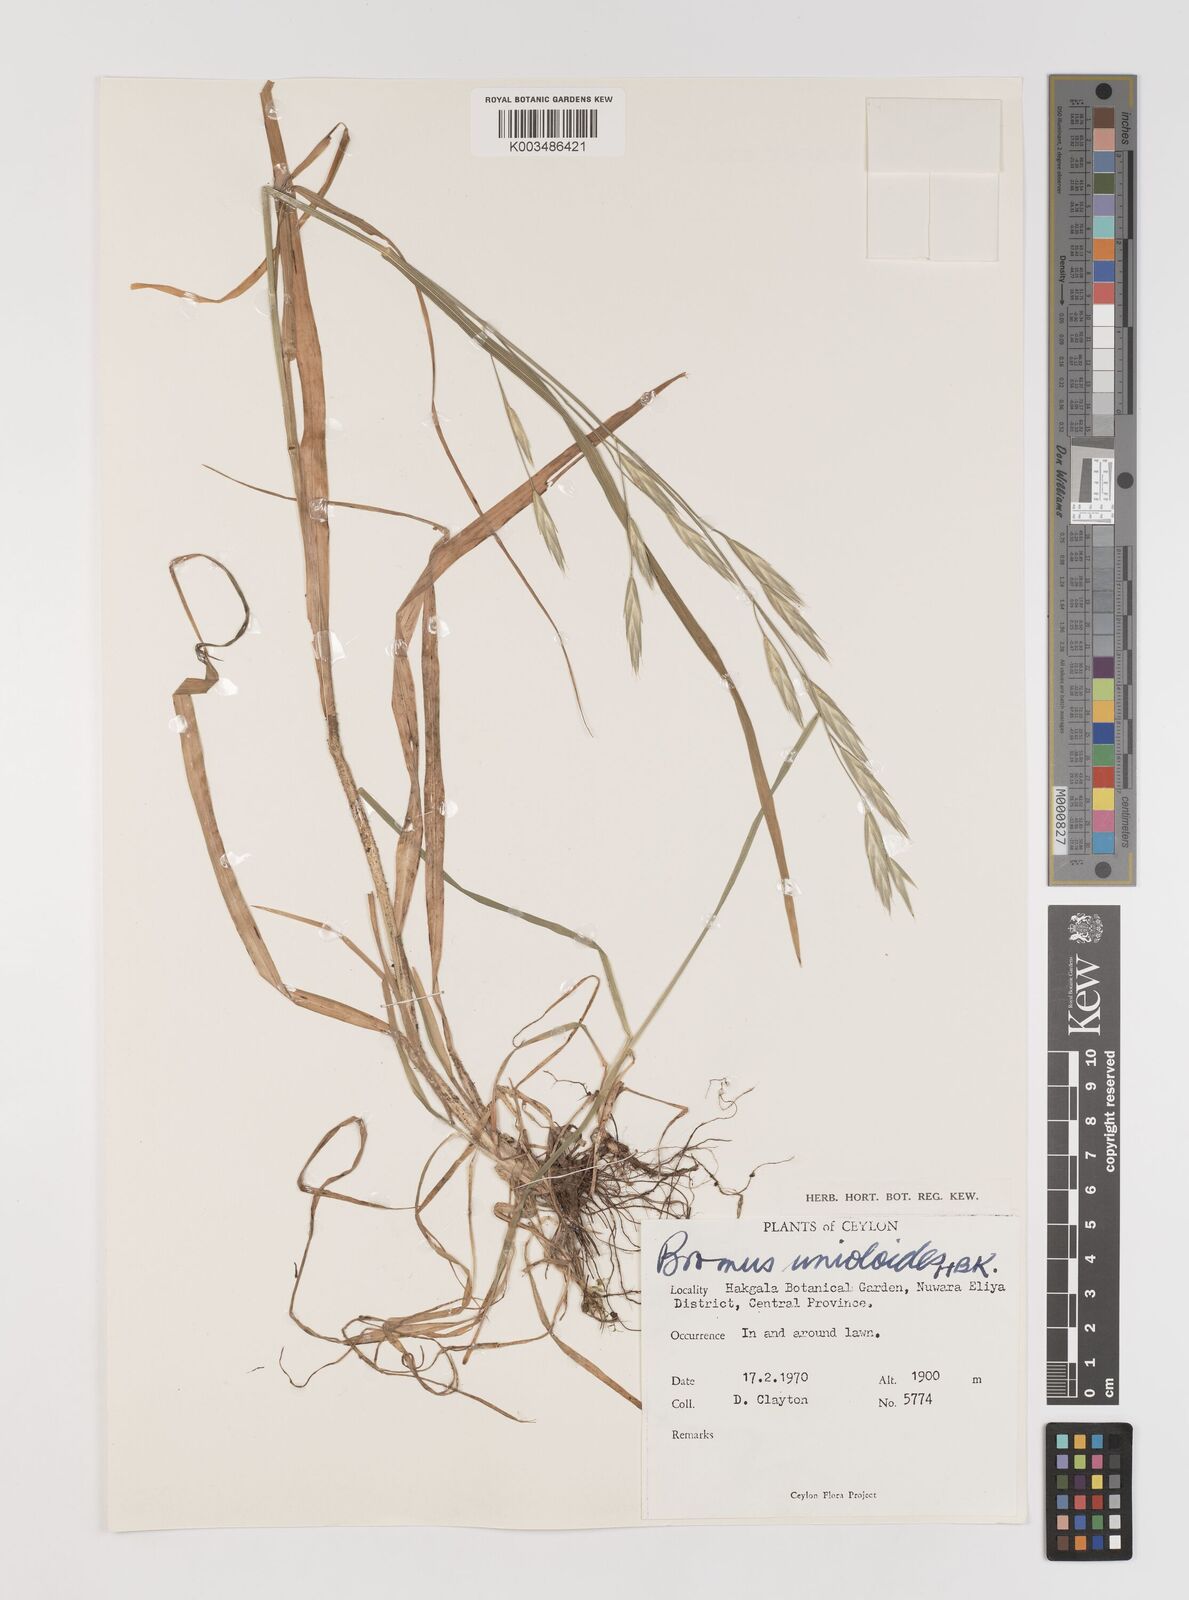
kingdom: Plantae
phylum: Tracheophyta
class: Liliopsida
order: Poales
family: Poaceae
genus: Bromus
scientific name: Bromus catharticus
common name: Rescuegrass
